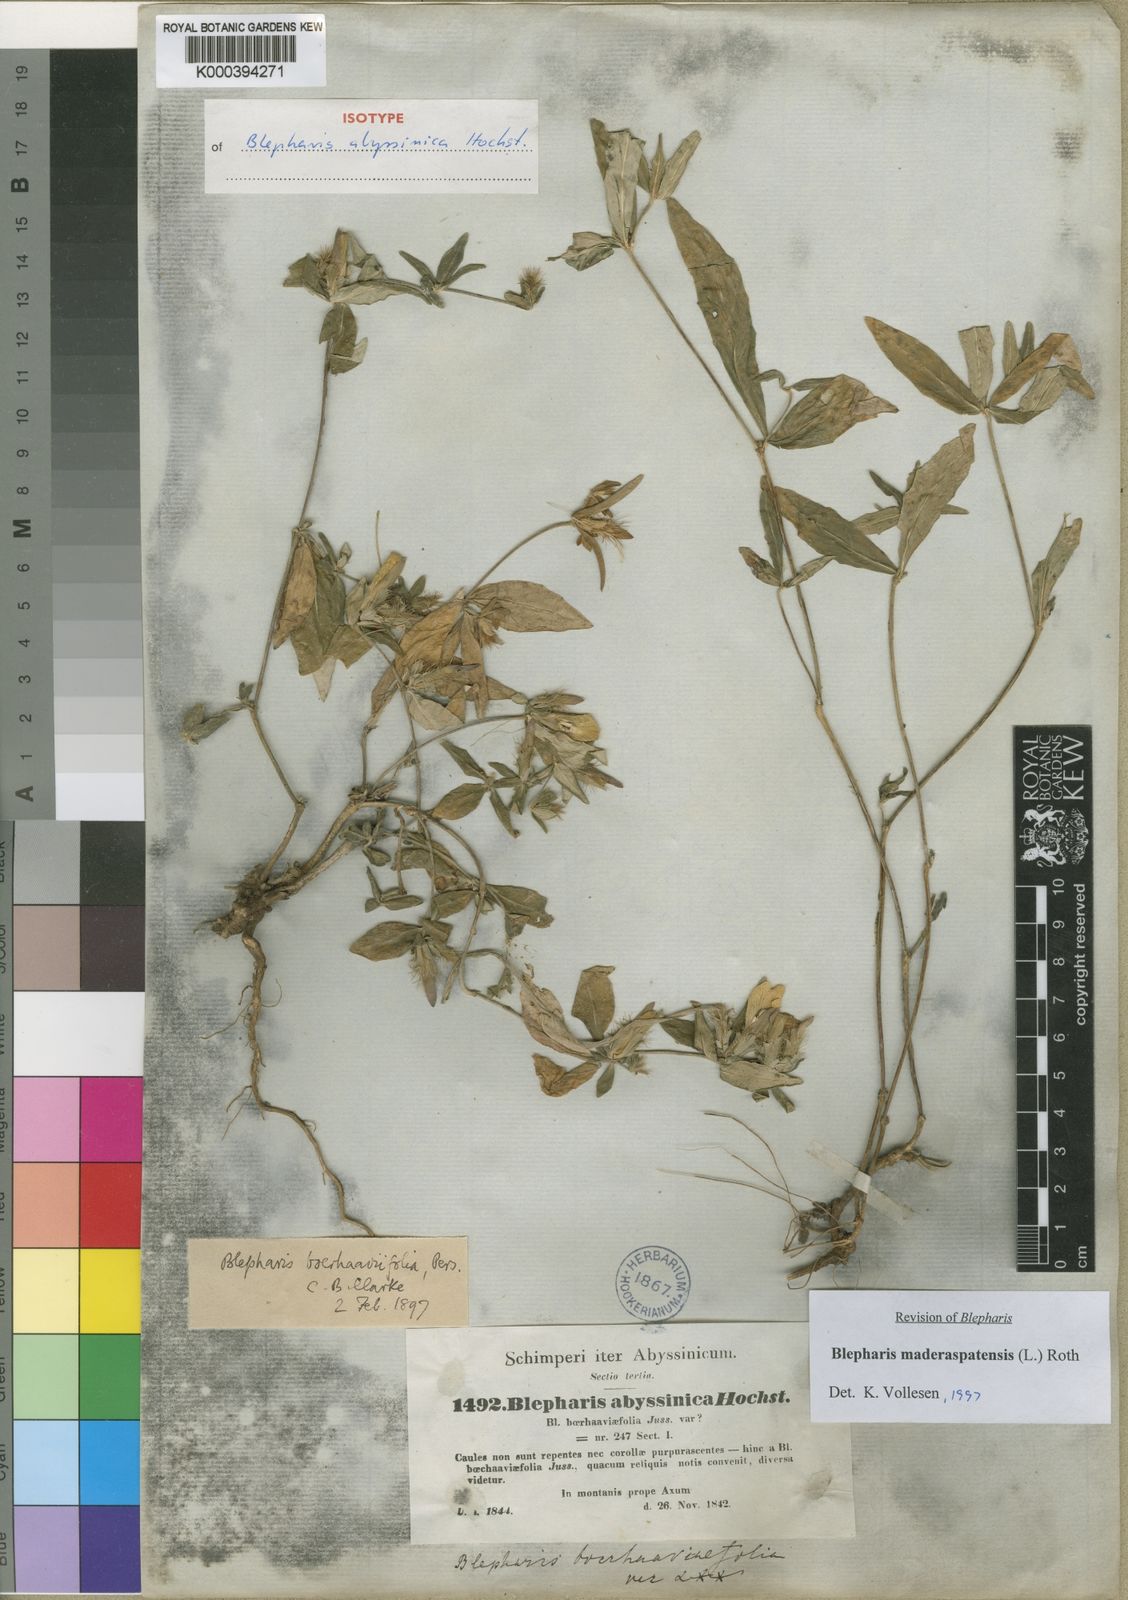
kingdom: Plantae
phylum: Tracheophyta
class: Magnoliopsida
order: Lamiales
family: Acanthaceae
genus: Blepharis
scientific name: Blepharis maderaspatensis
